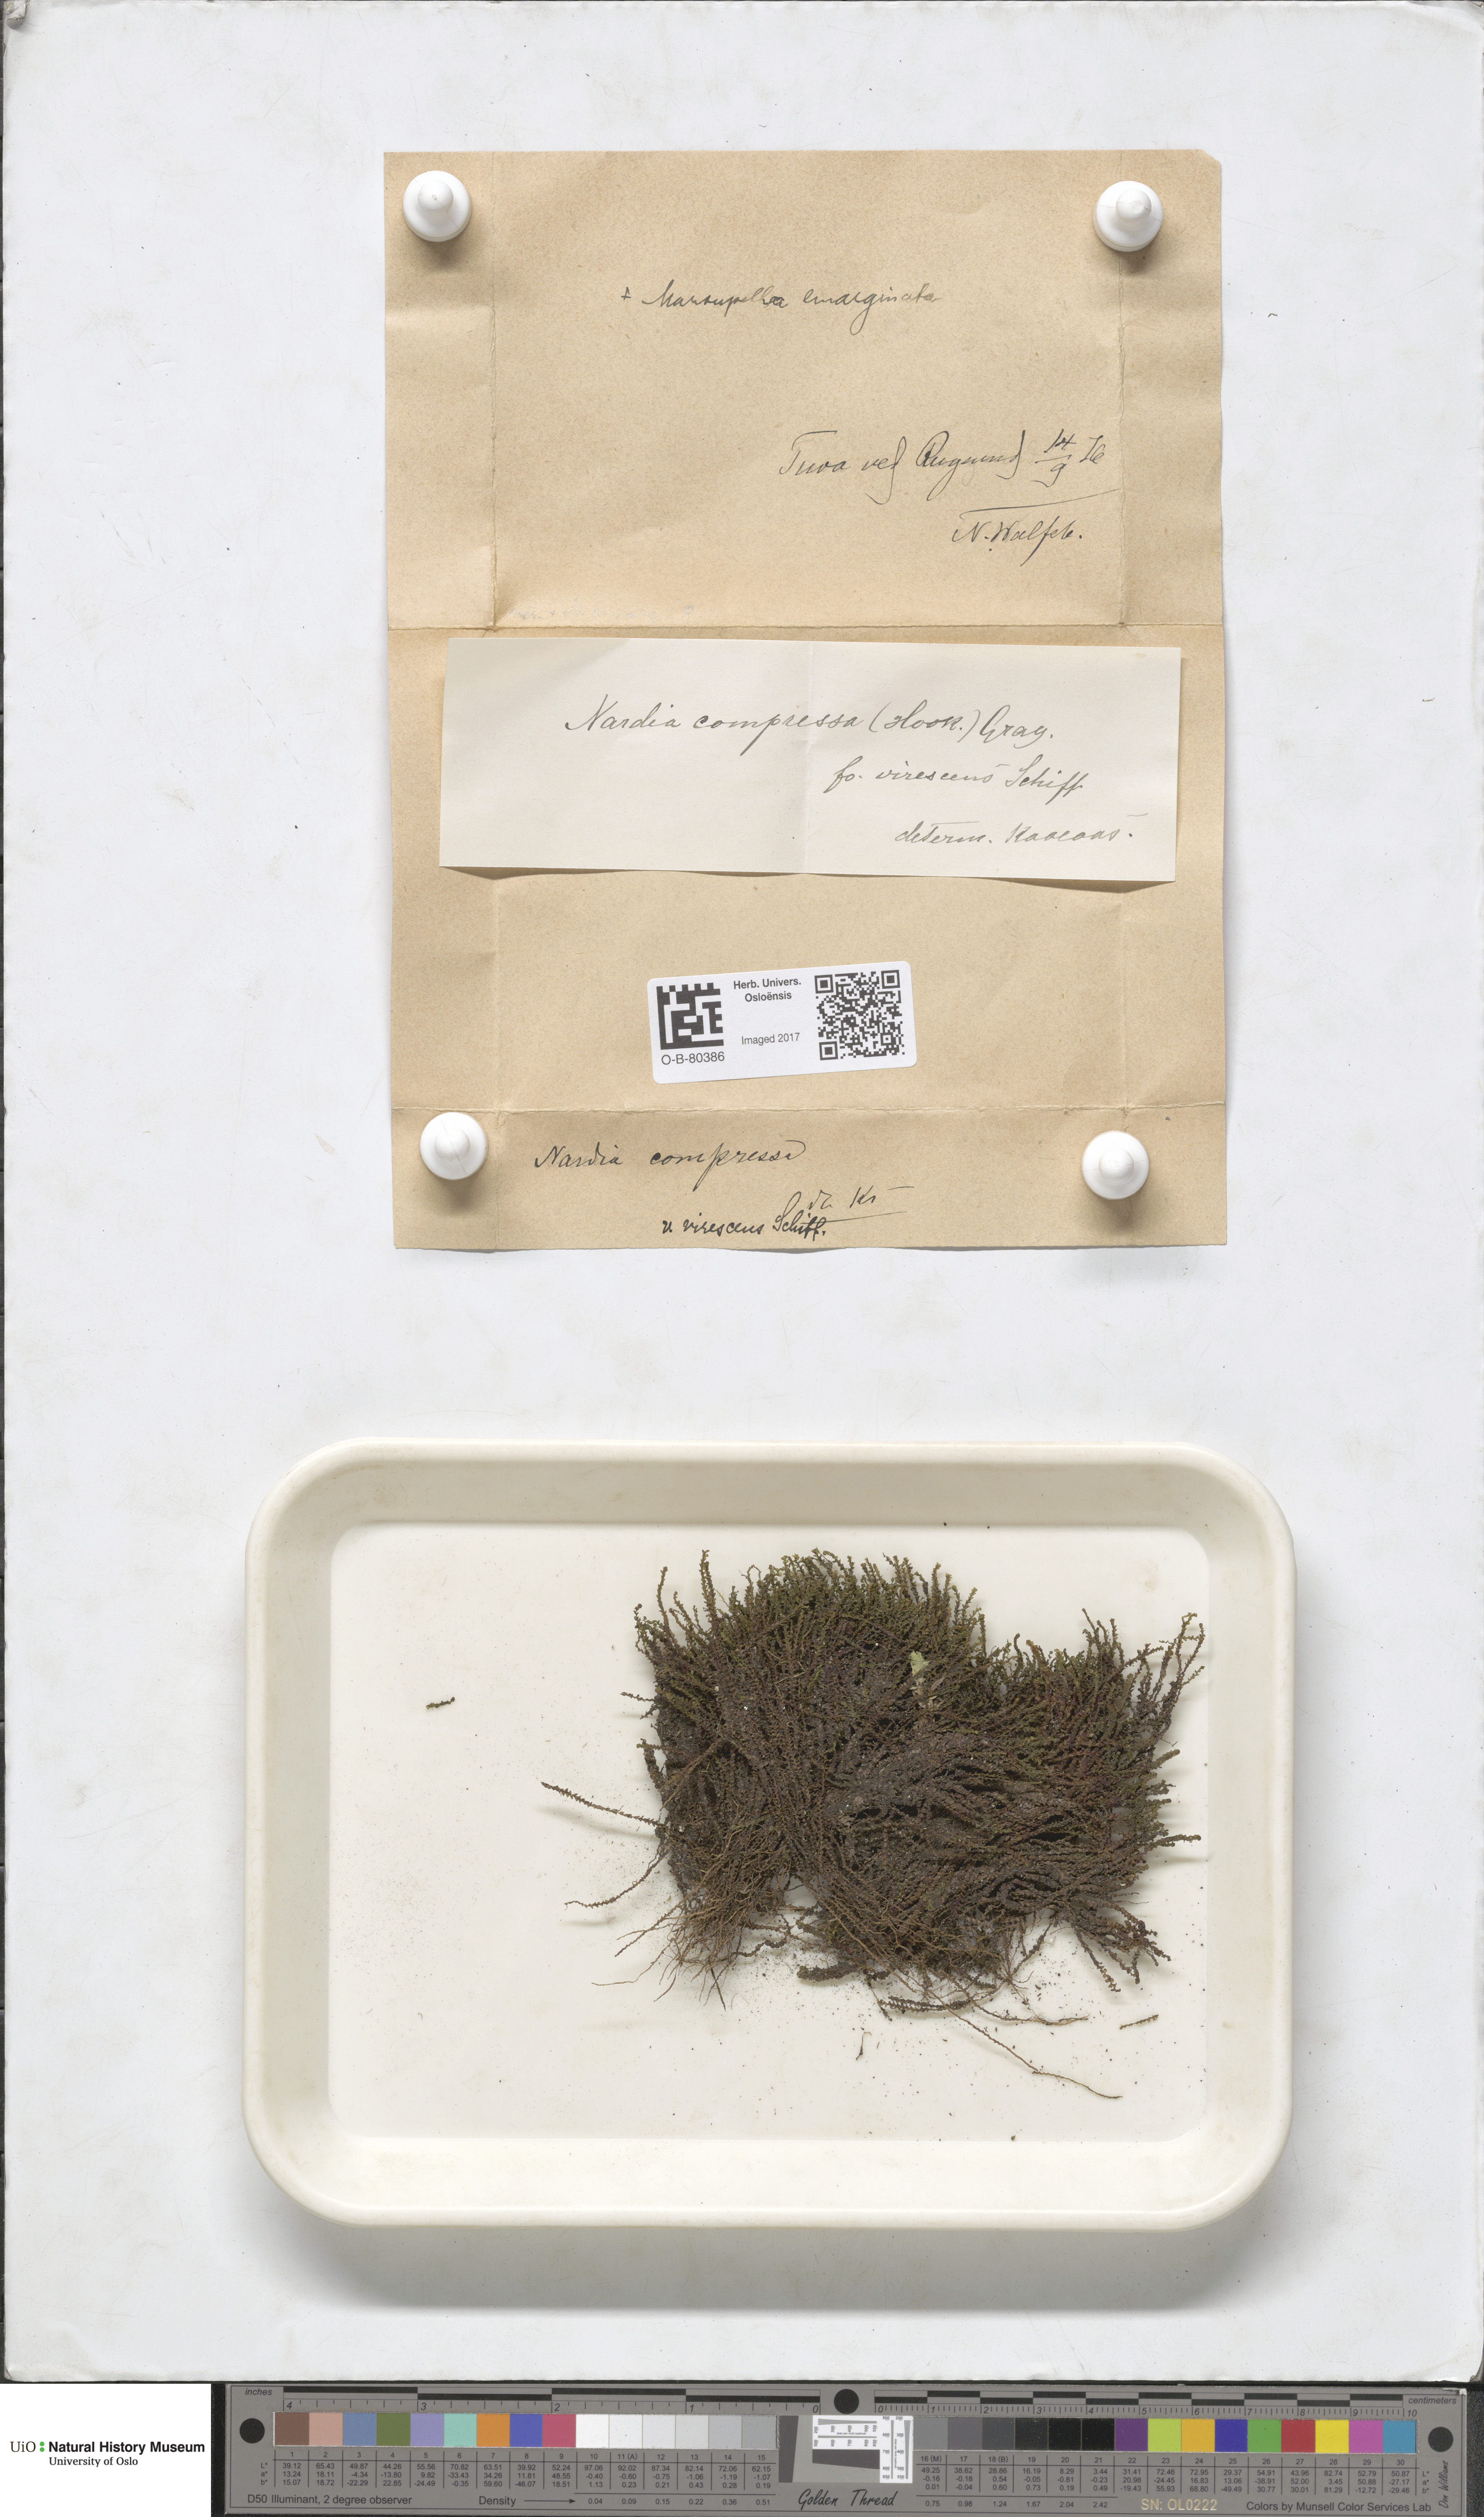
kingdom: Plantae
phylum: Marchantiophyta
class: Jungermanniopsida
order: Jungermanniales
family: Gymnomitriaceae
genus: Nardia
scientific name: Nardia compressa
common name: Compressed flapwort
